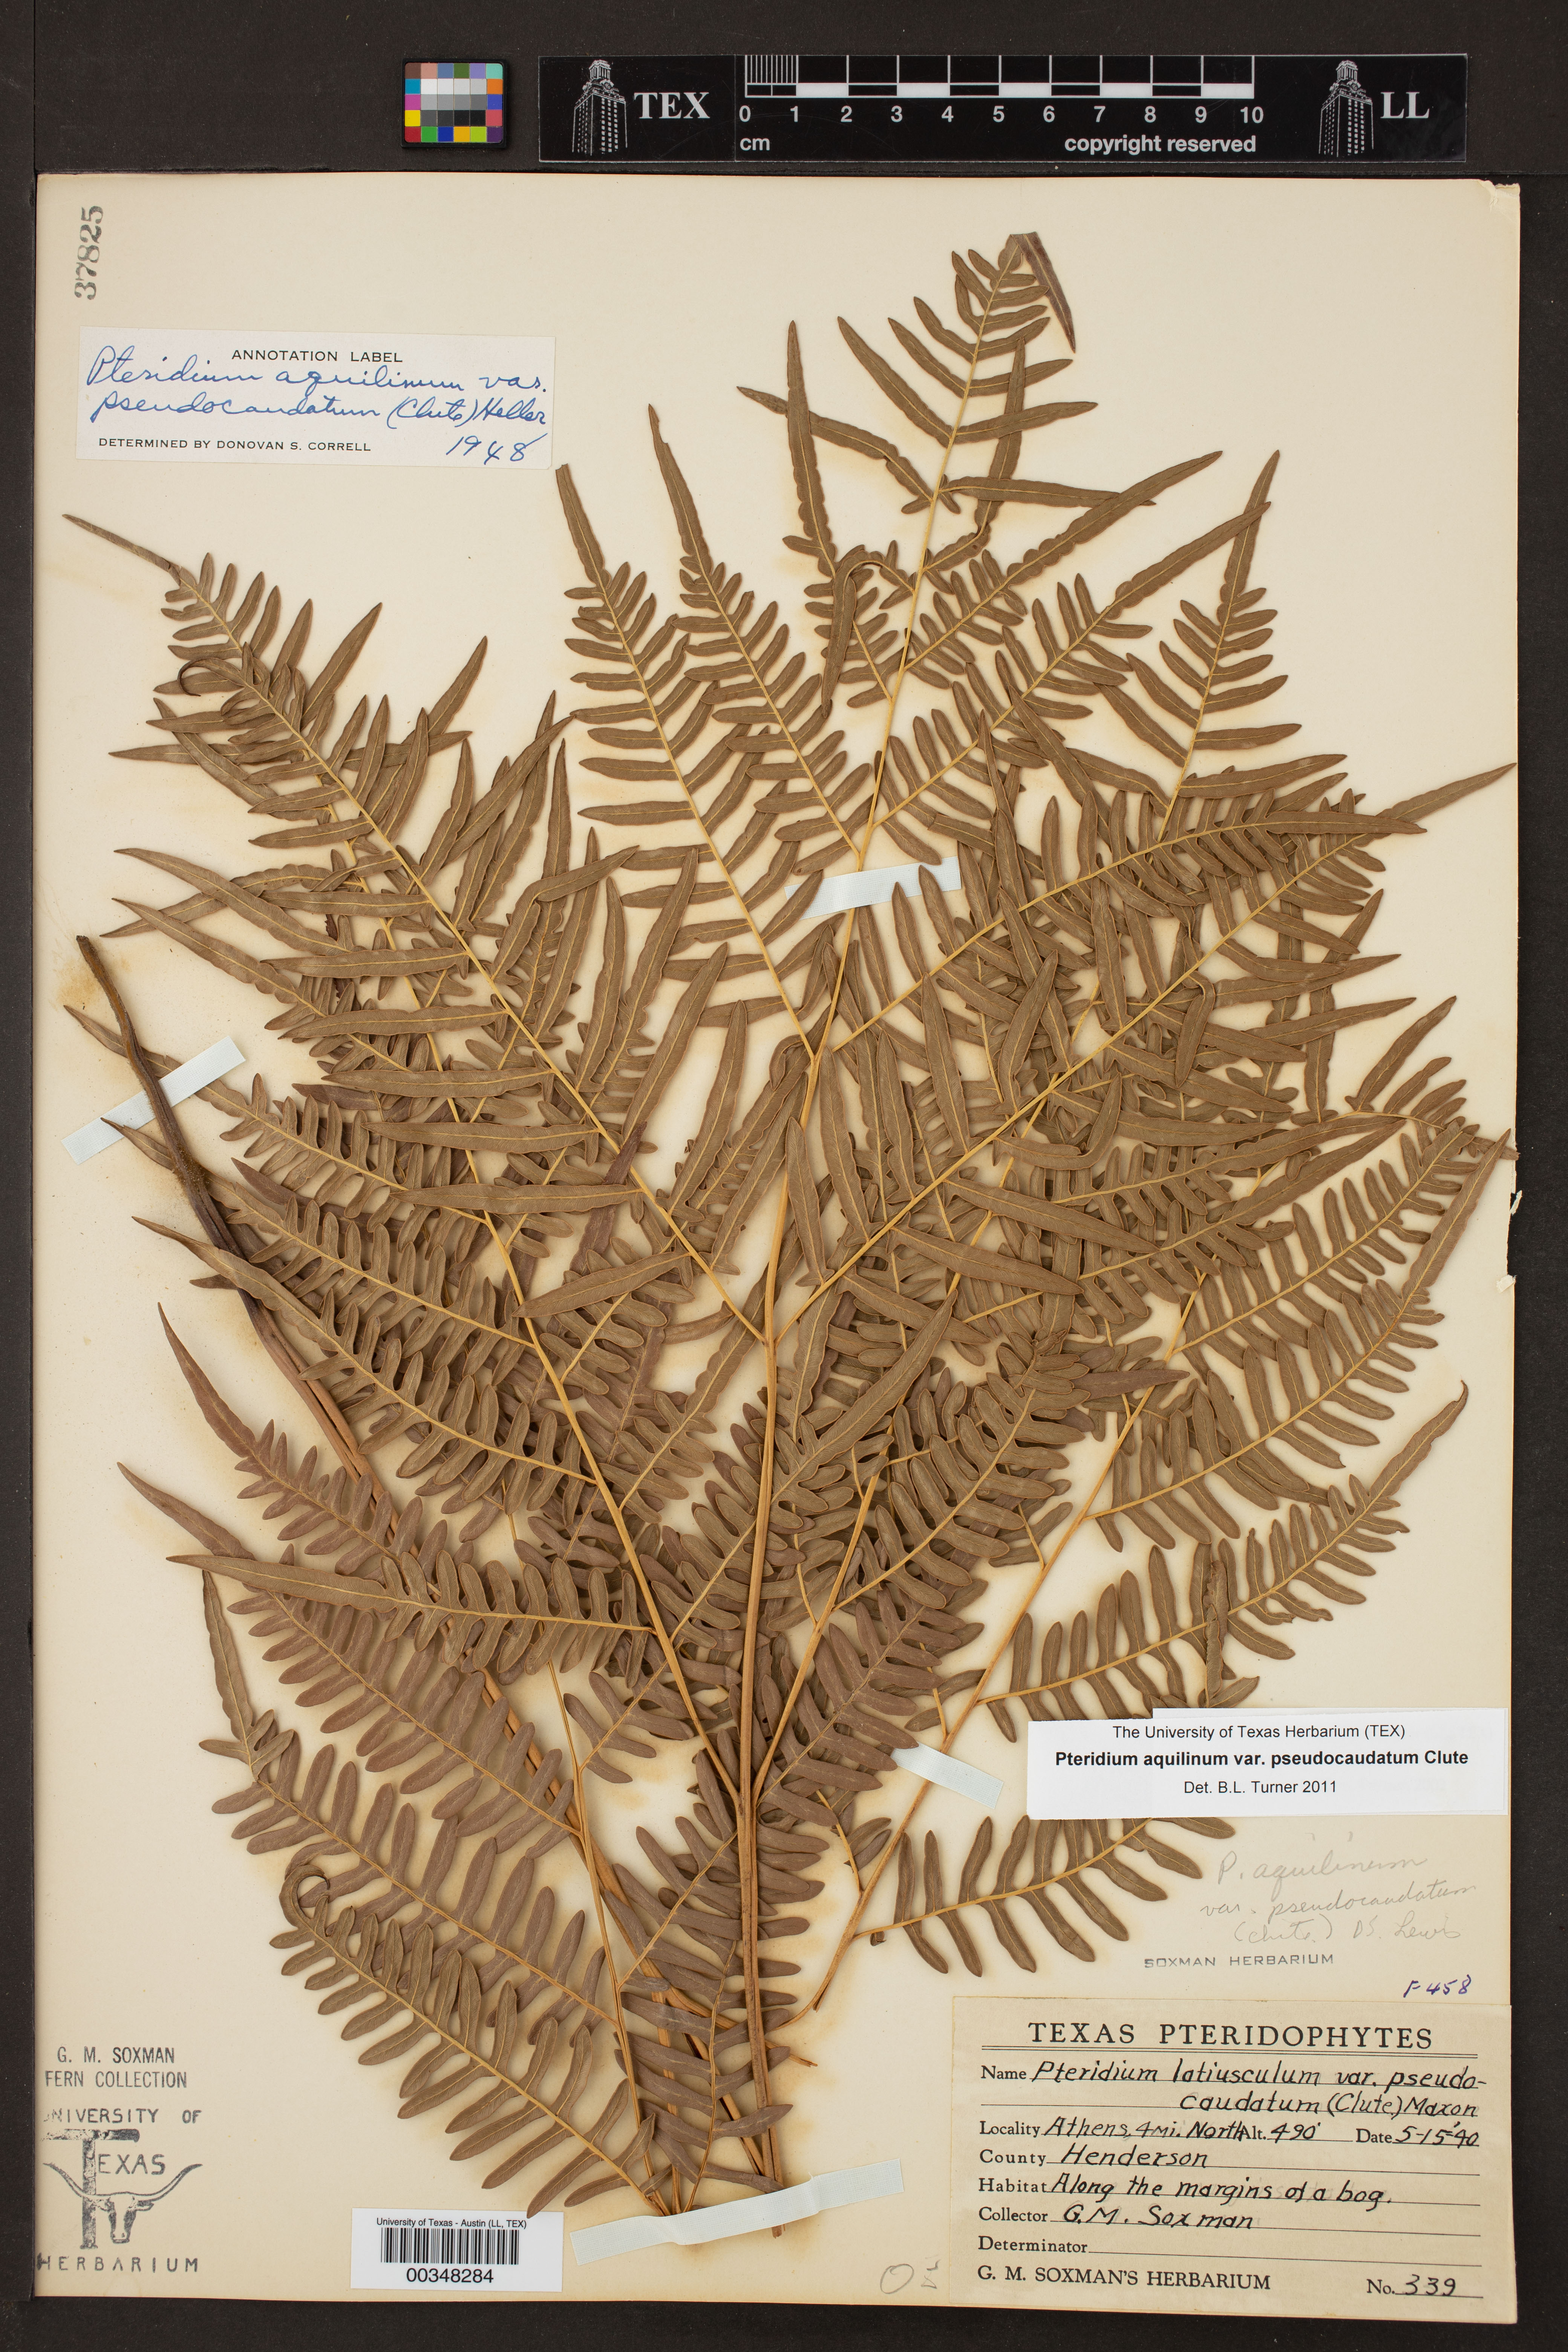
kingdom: Plantae
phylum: Tracheophyta
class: Polypodiopsida
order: Polypodiales
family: Dennstaedtiaceae
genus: Pteridium
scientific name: Pteridium
